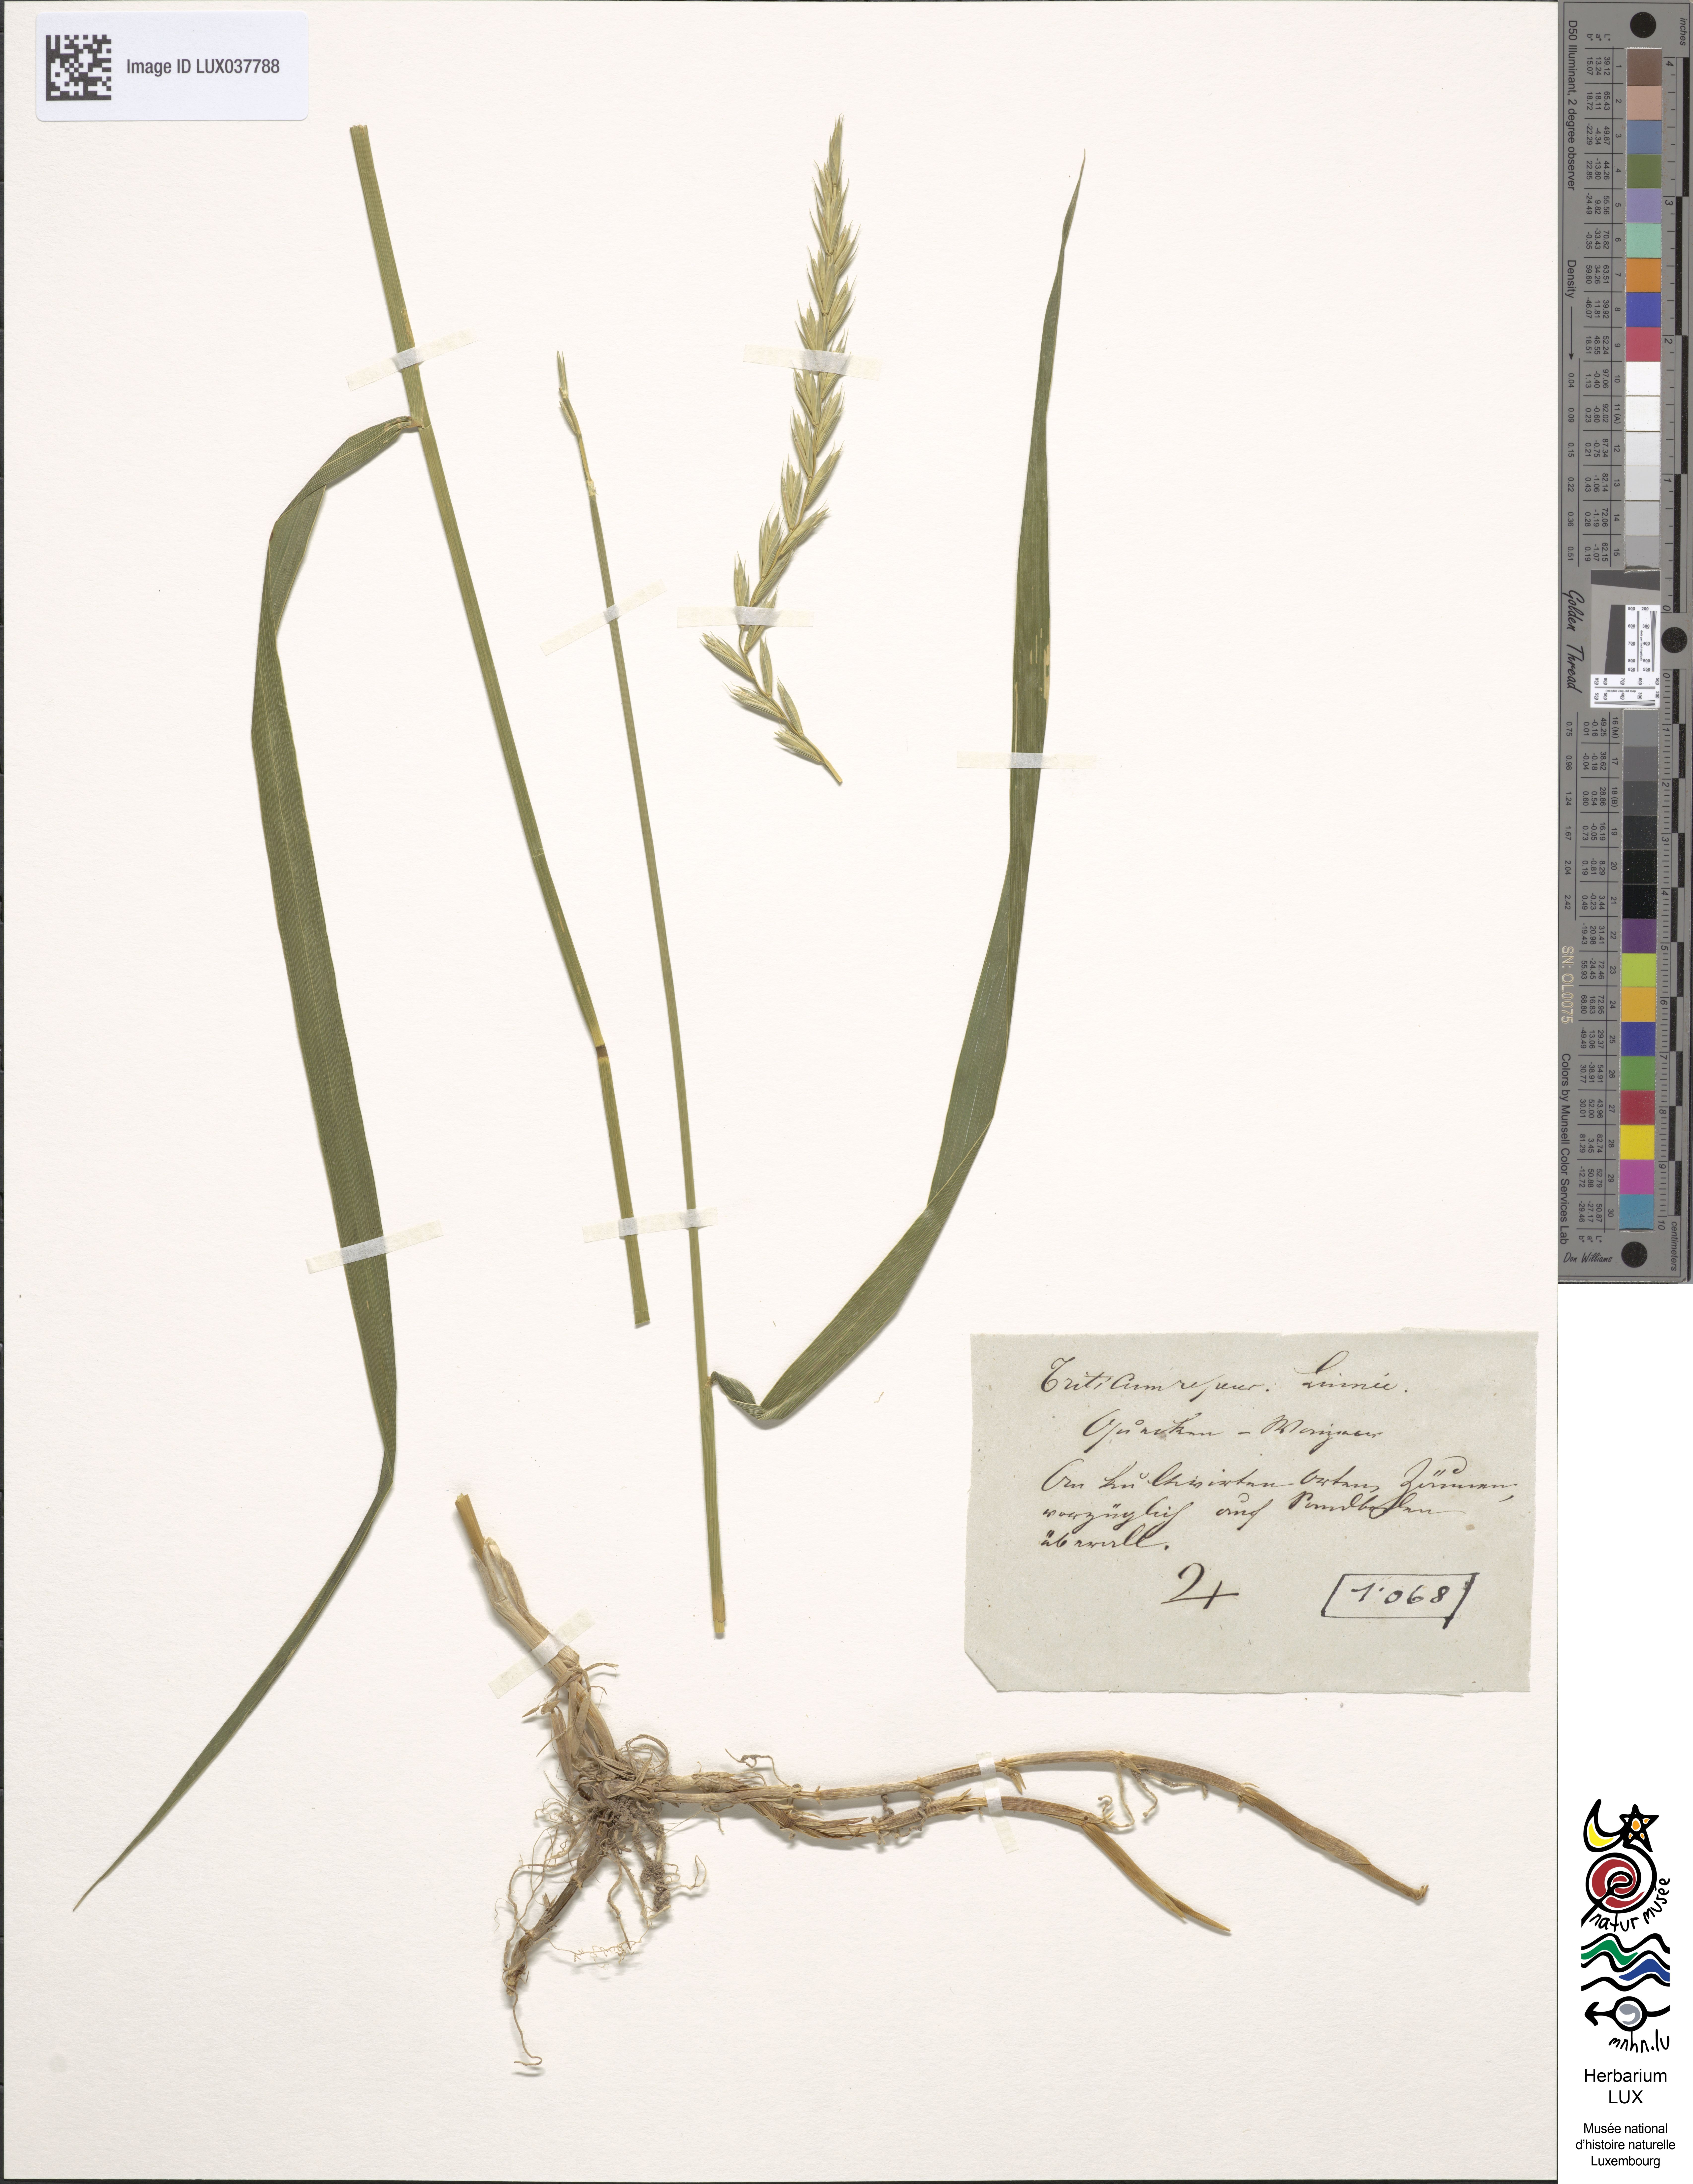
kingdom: Plantae
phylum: Tracheophyta
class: Liliopsida
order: Poales
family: Poaceae
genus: Elymus
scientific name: Elymus repens
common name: Quackgrass
